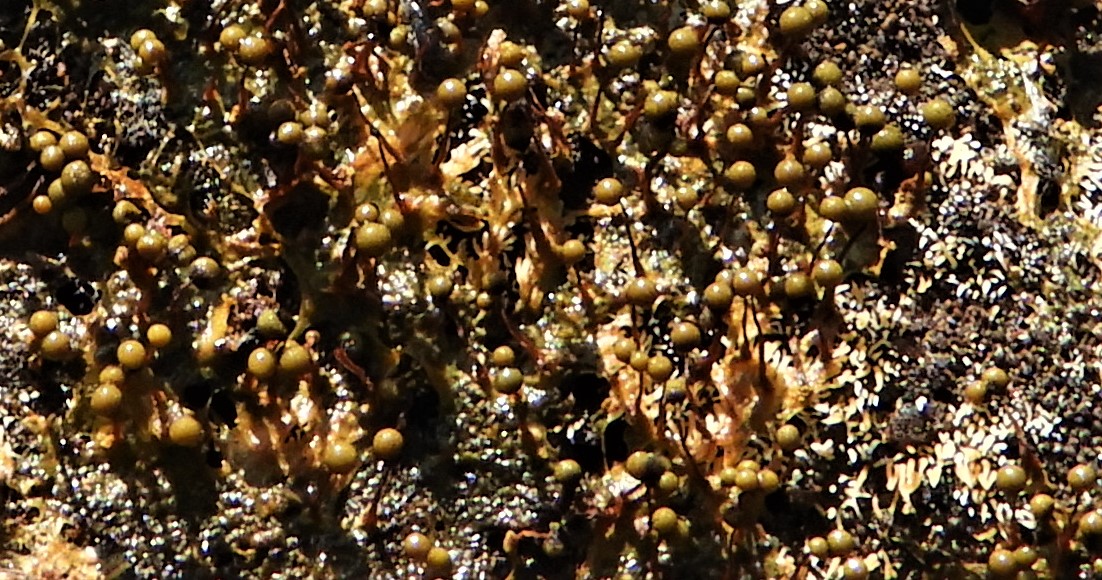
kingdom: Protozoa
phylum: Mycetozoa
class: Myxomycetes
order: Trichiales
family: Trichiaceae
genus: Trichia
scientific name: Trichia
